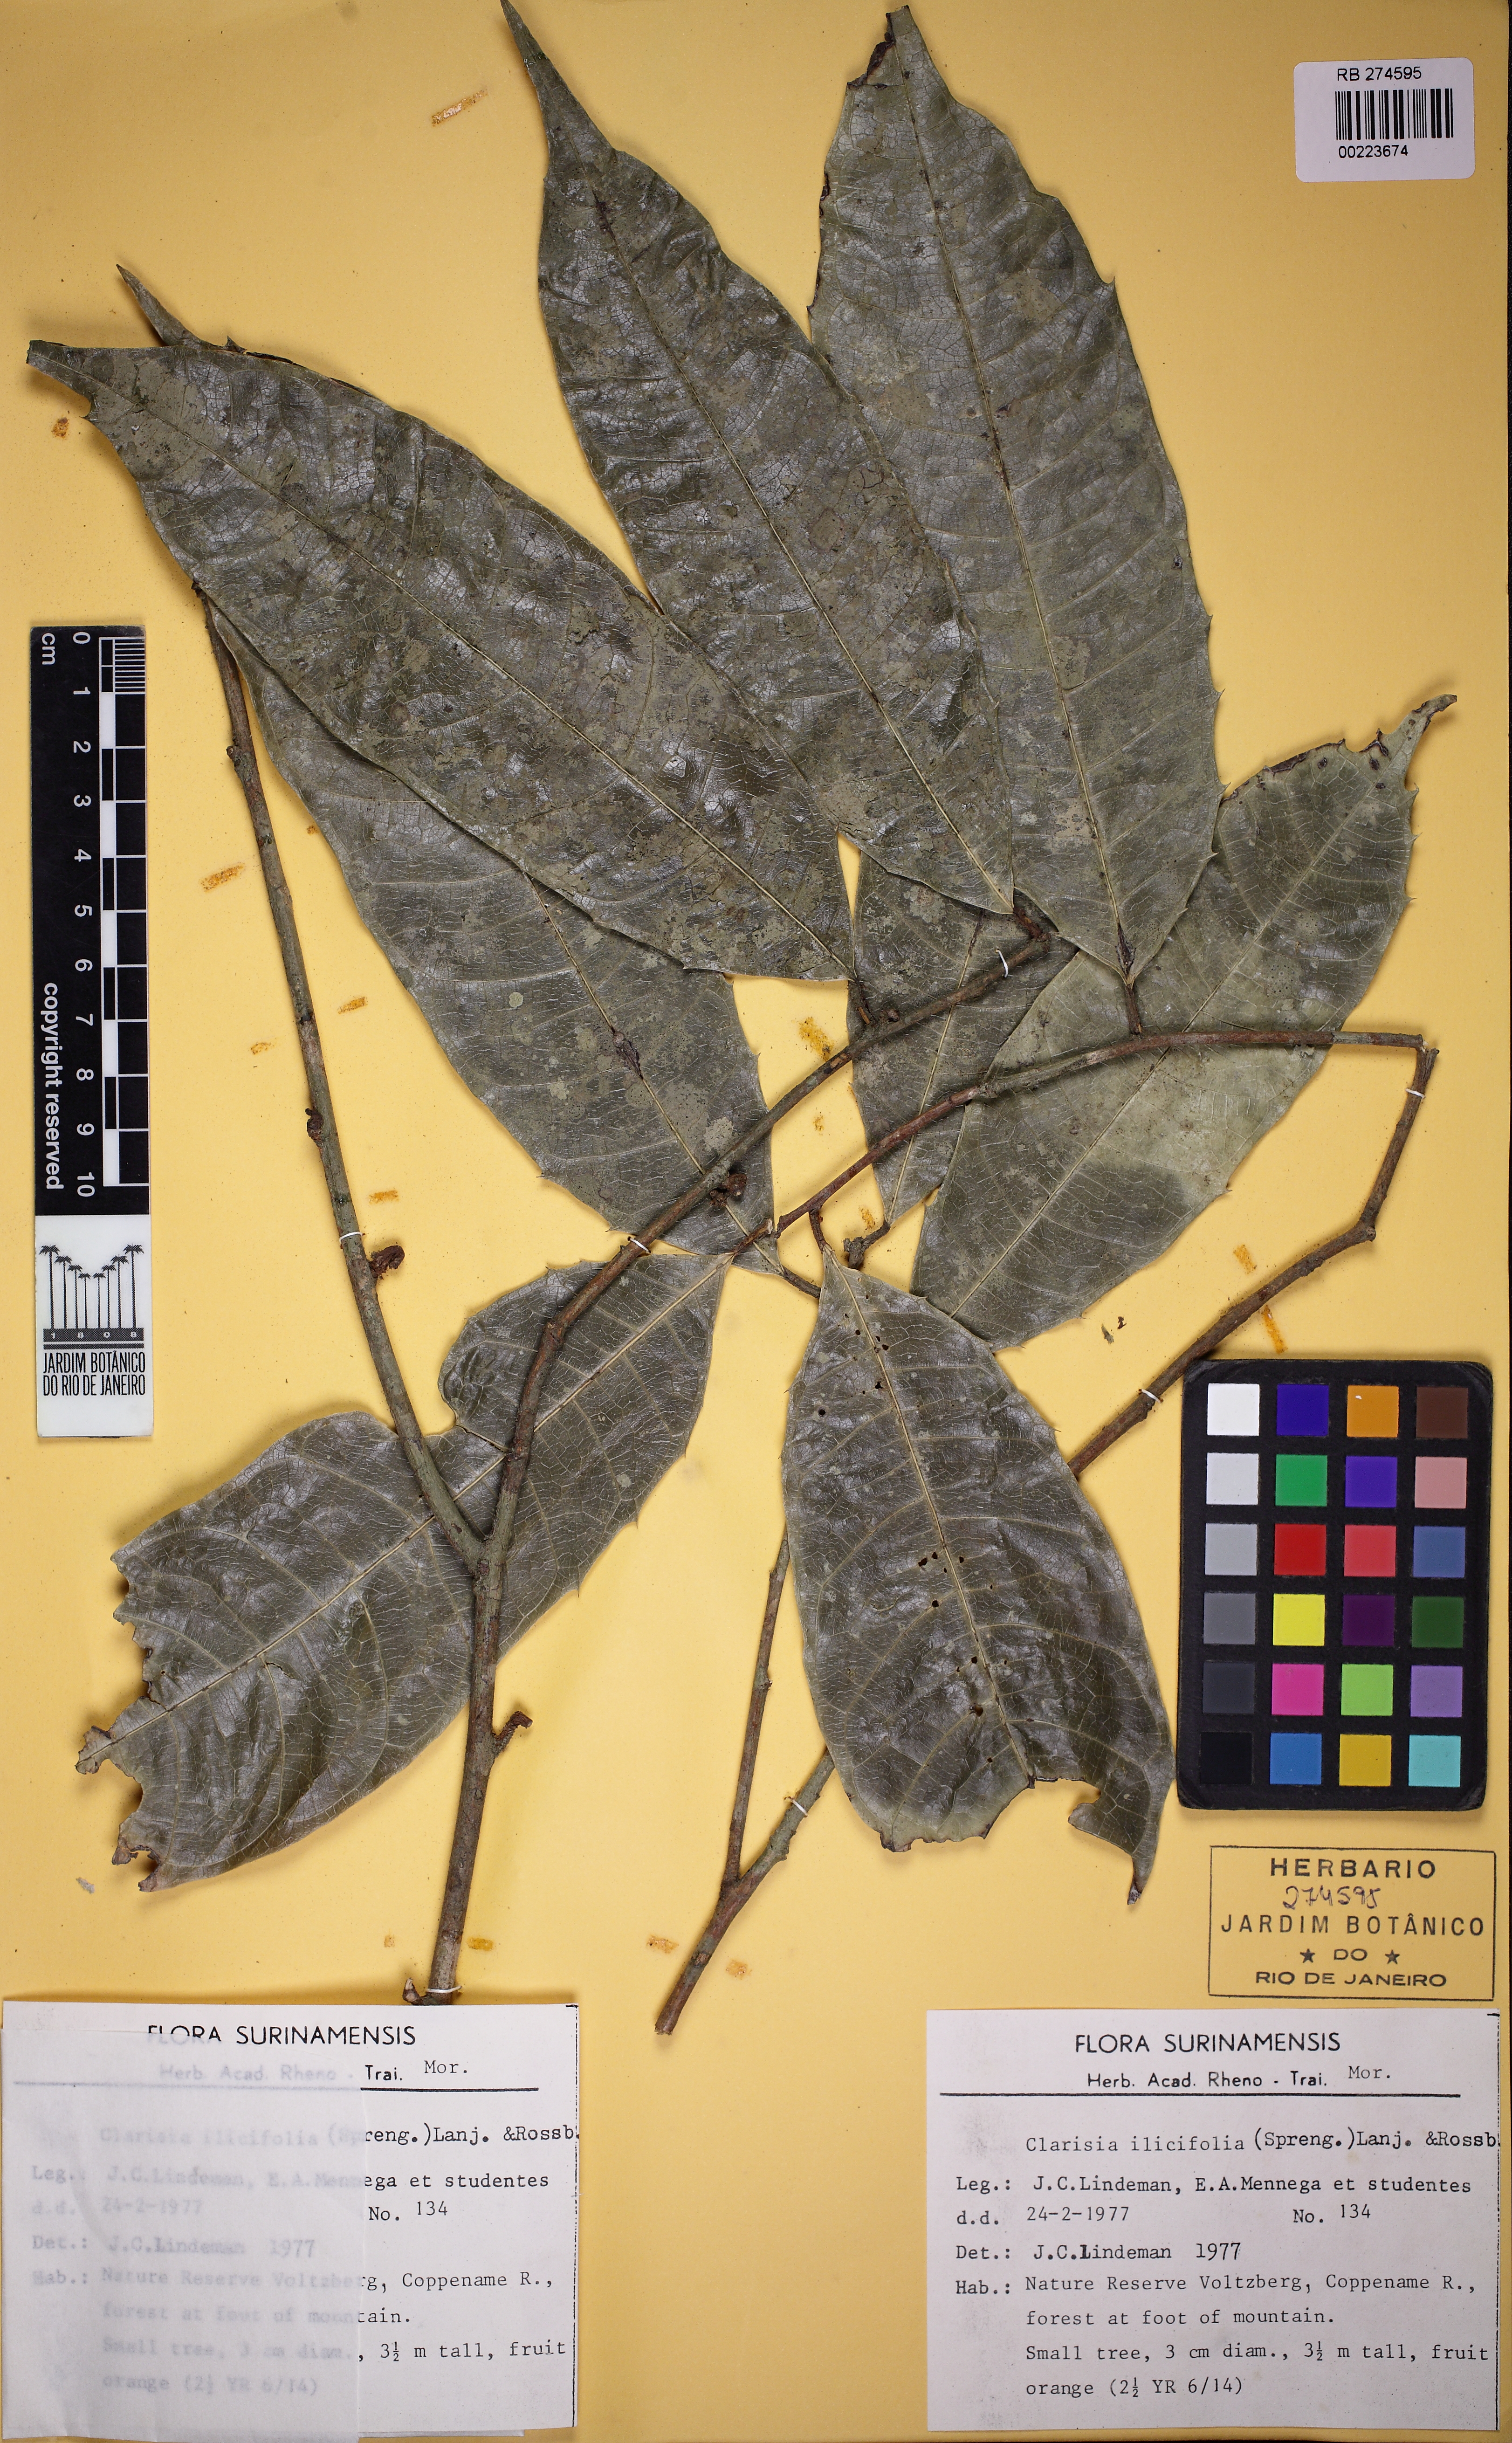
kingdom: Plantae
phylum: Tracheophyta
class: Magnoliopsida
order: Rosales
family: Moraceae
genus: Clarisia
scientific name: Clarisia ilicifolia
